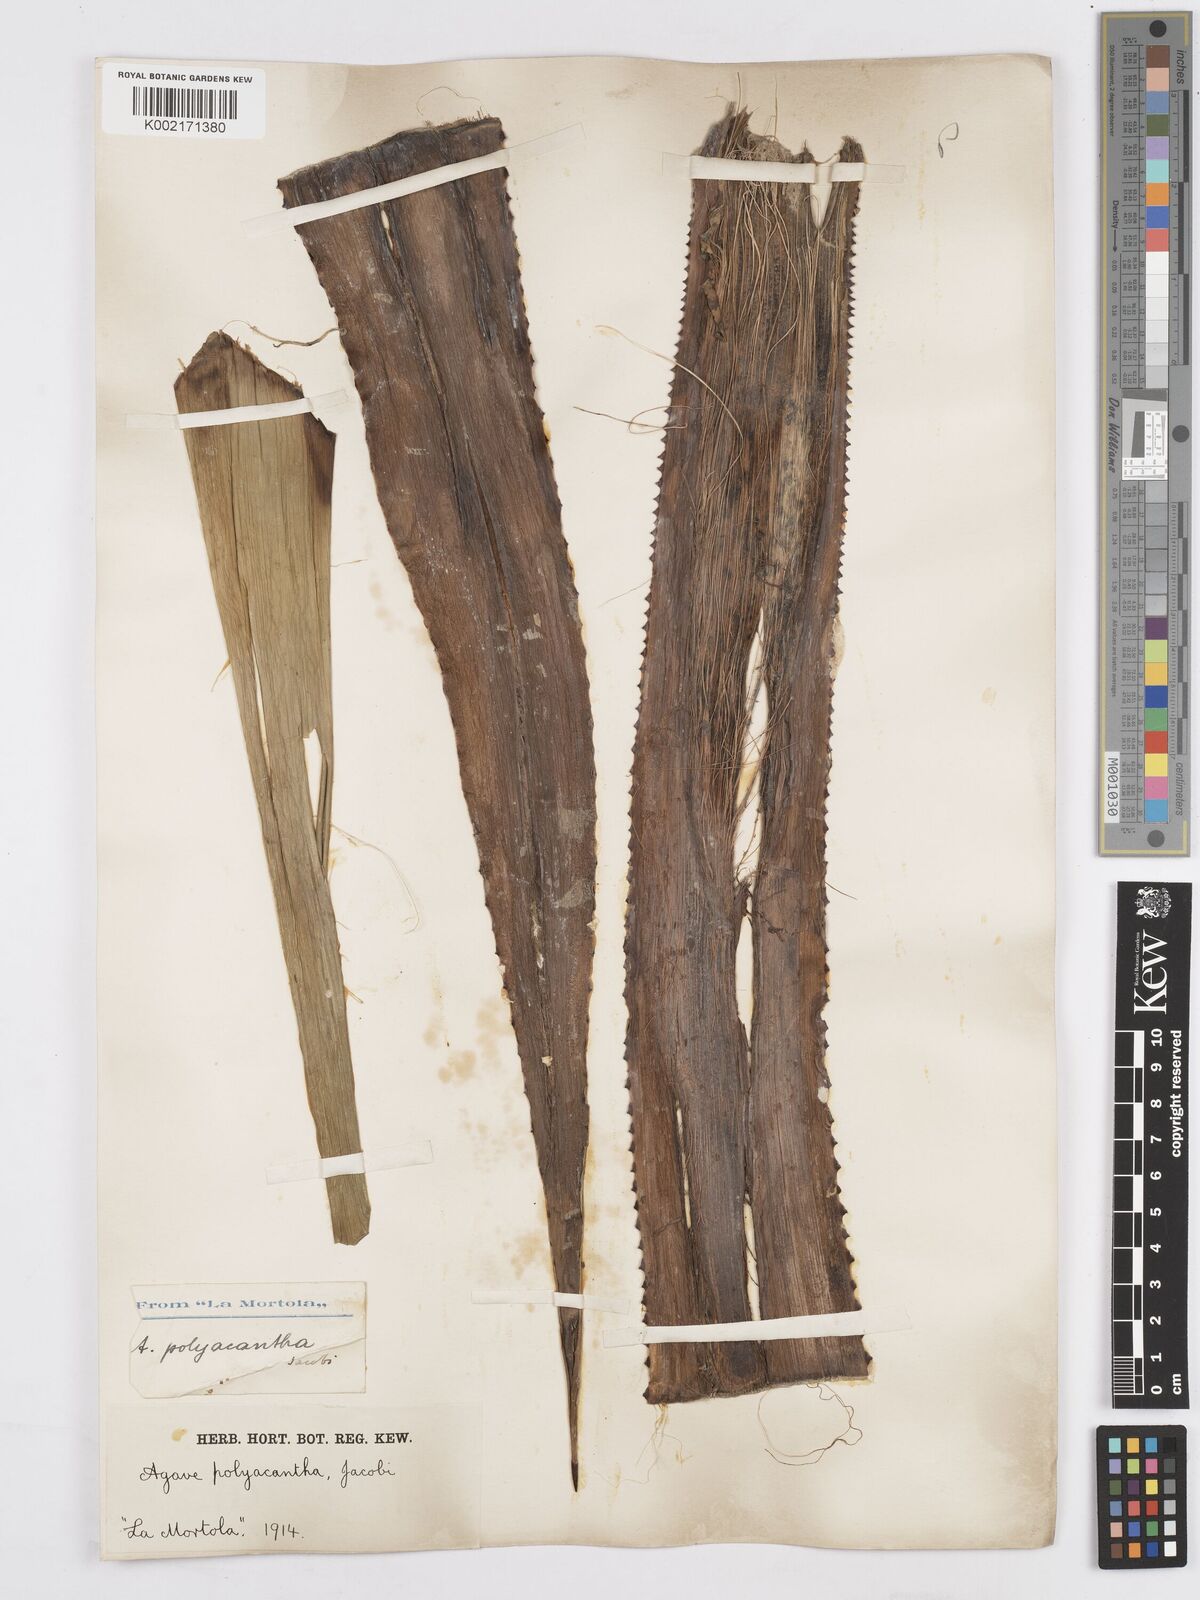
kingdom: Plantae
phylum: Tracheophyta
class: Liliopsida
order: Asparagales
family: Asparagaceae
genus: Agave
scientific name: Agave polyacantha
